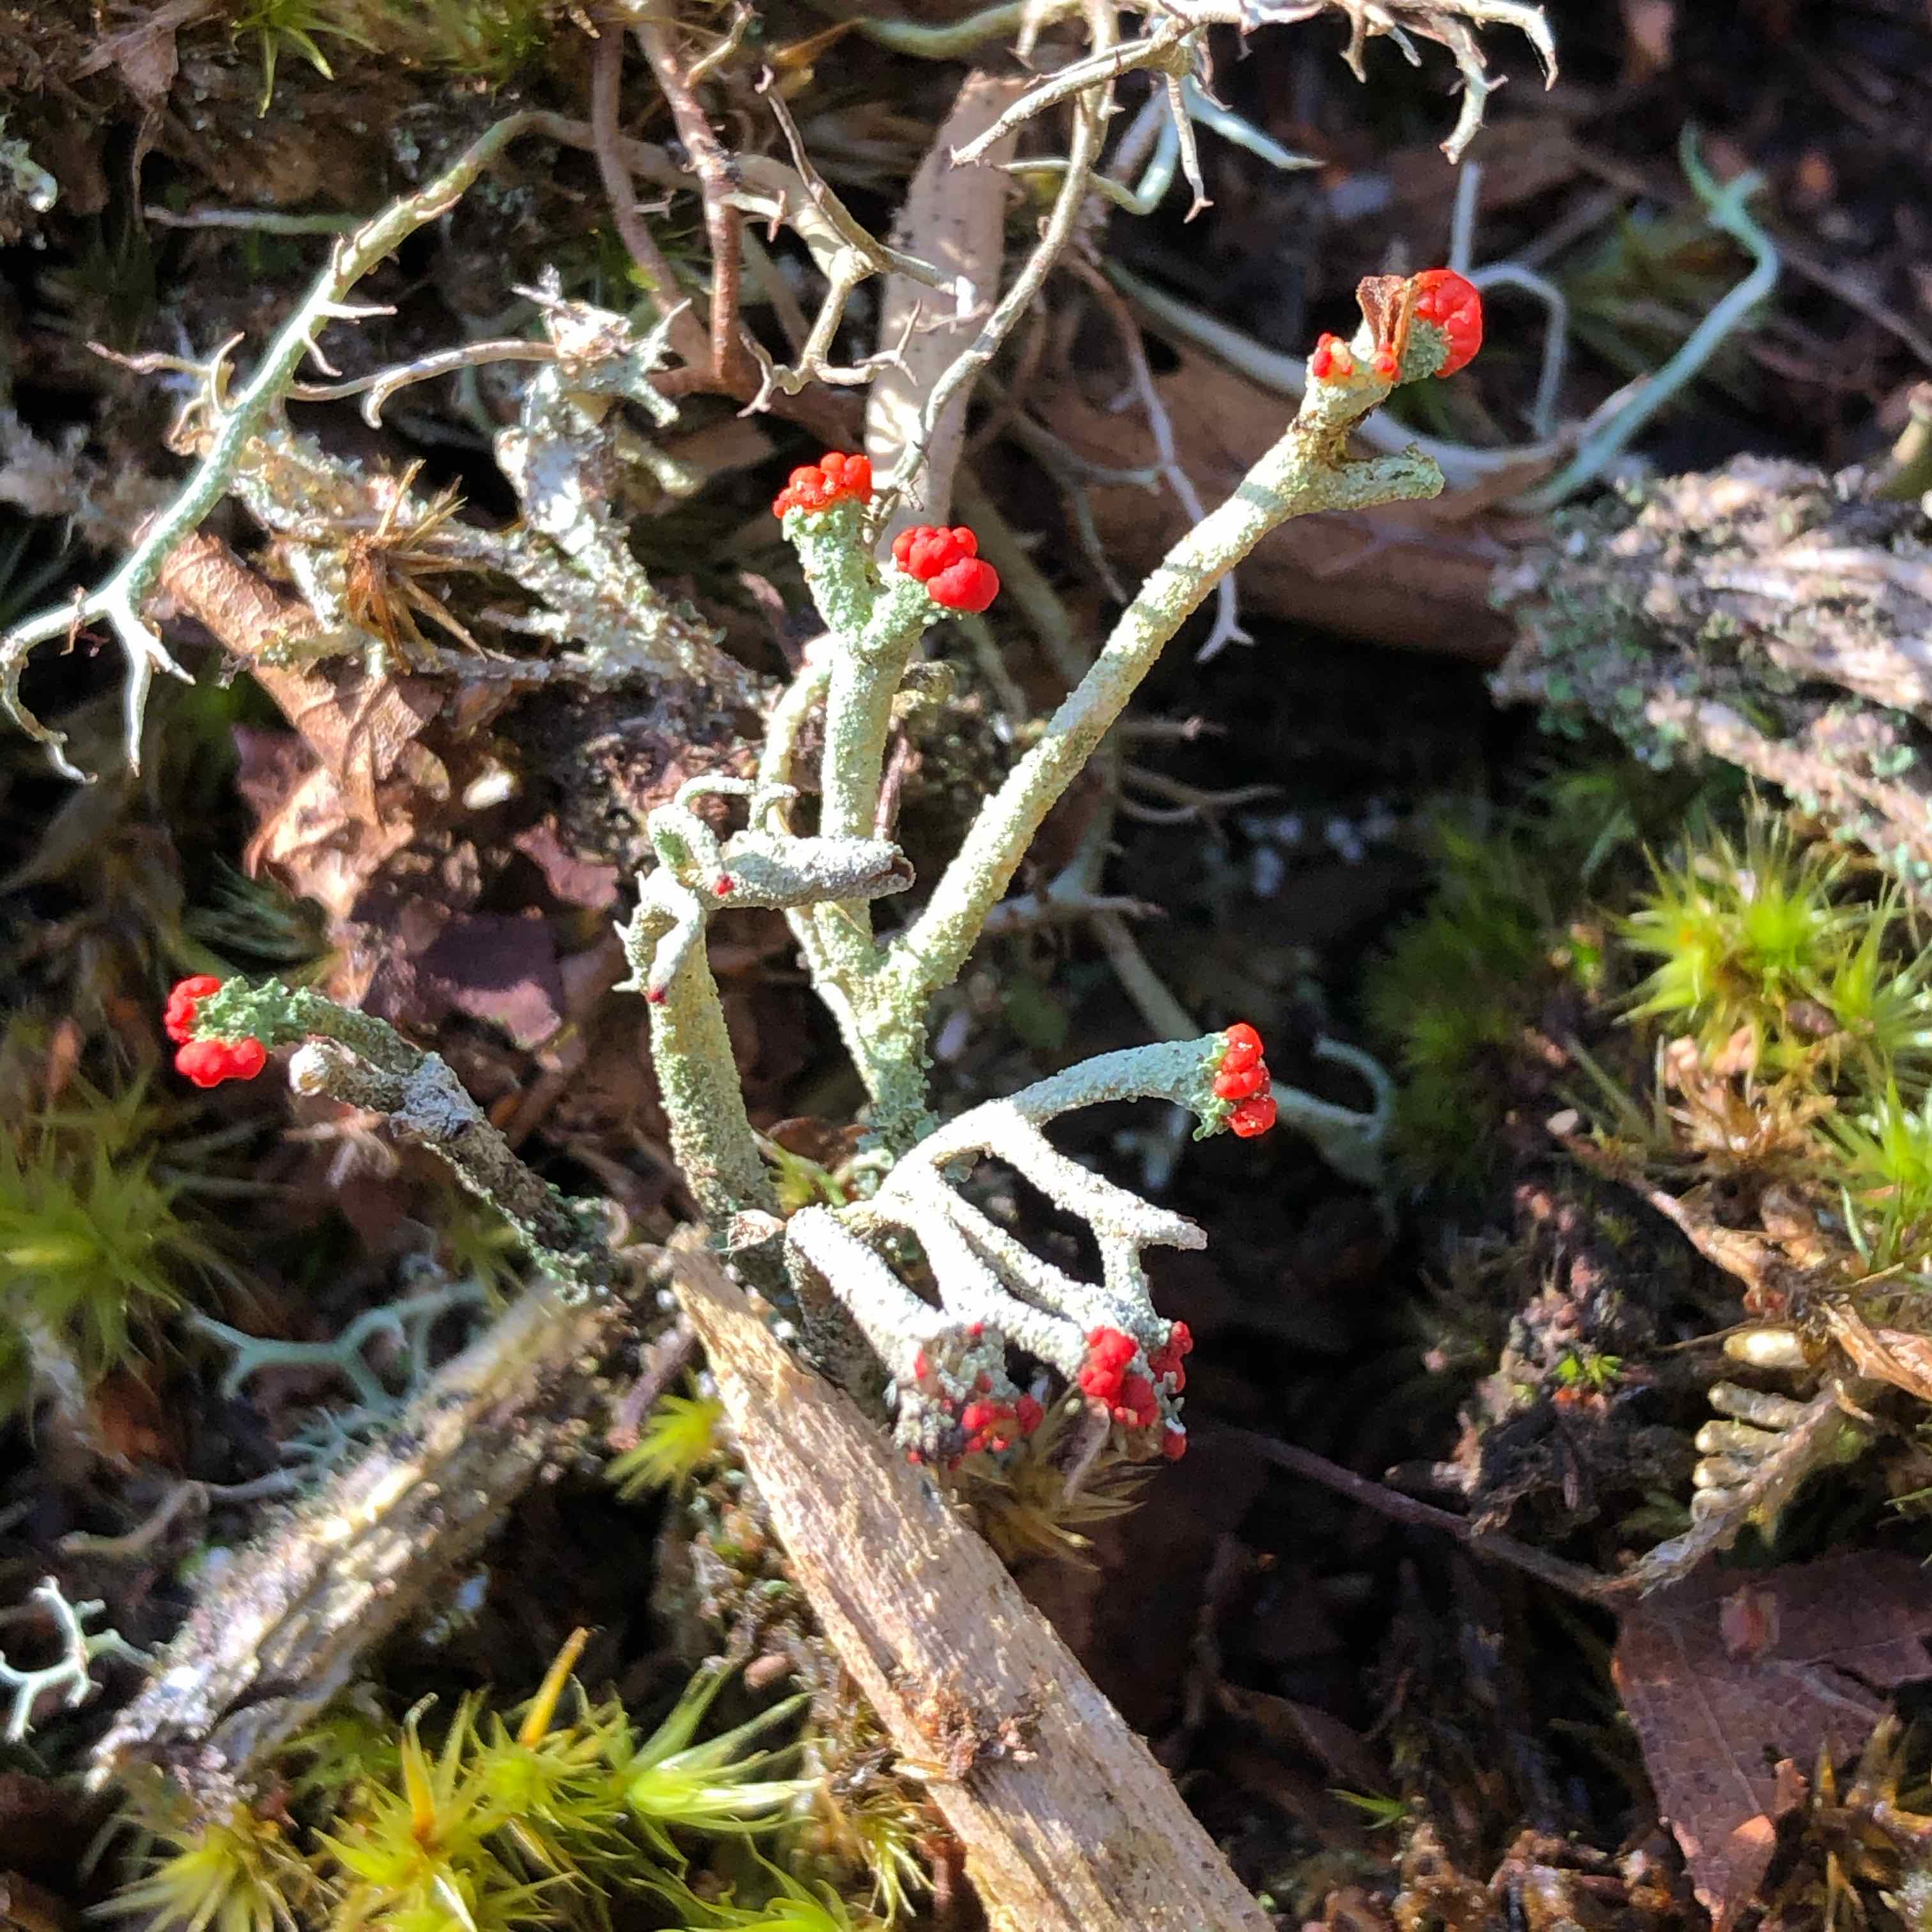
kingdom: Fungi
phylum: Ascomycota
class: Lecanoromycetes
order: Lecanorales
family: Cladoniaceae
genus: Cladonia
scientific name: Cladonia floerkeana
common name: lakrød bægerlav
